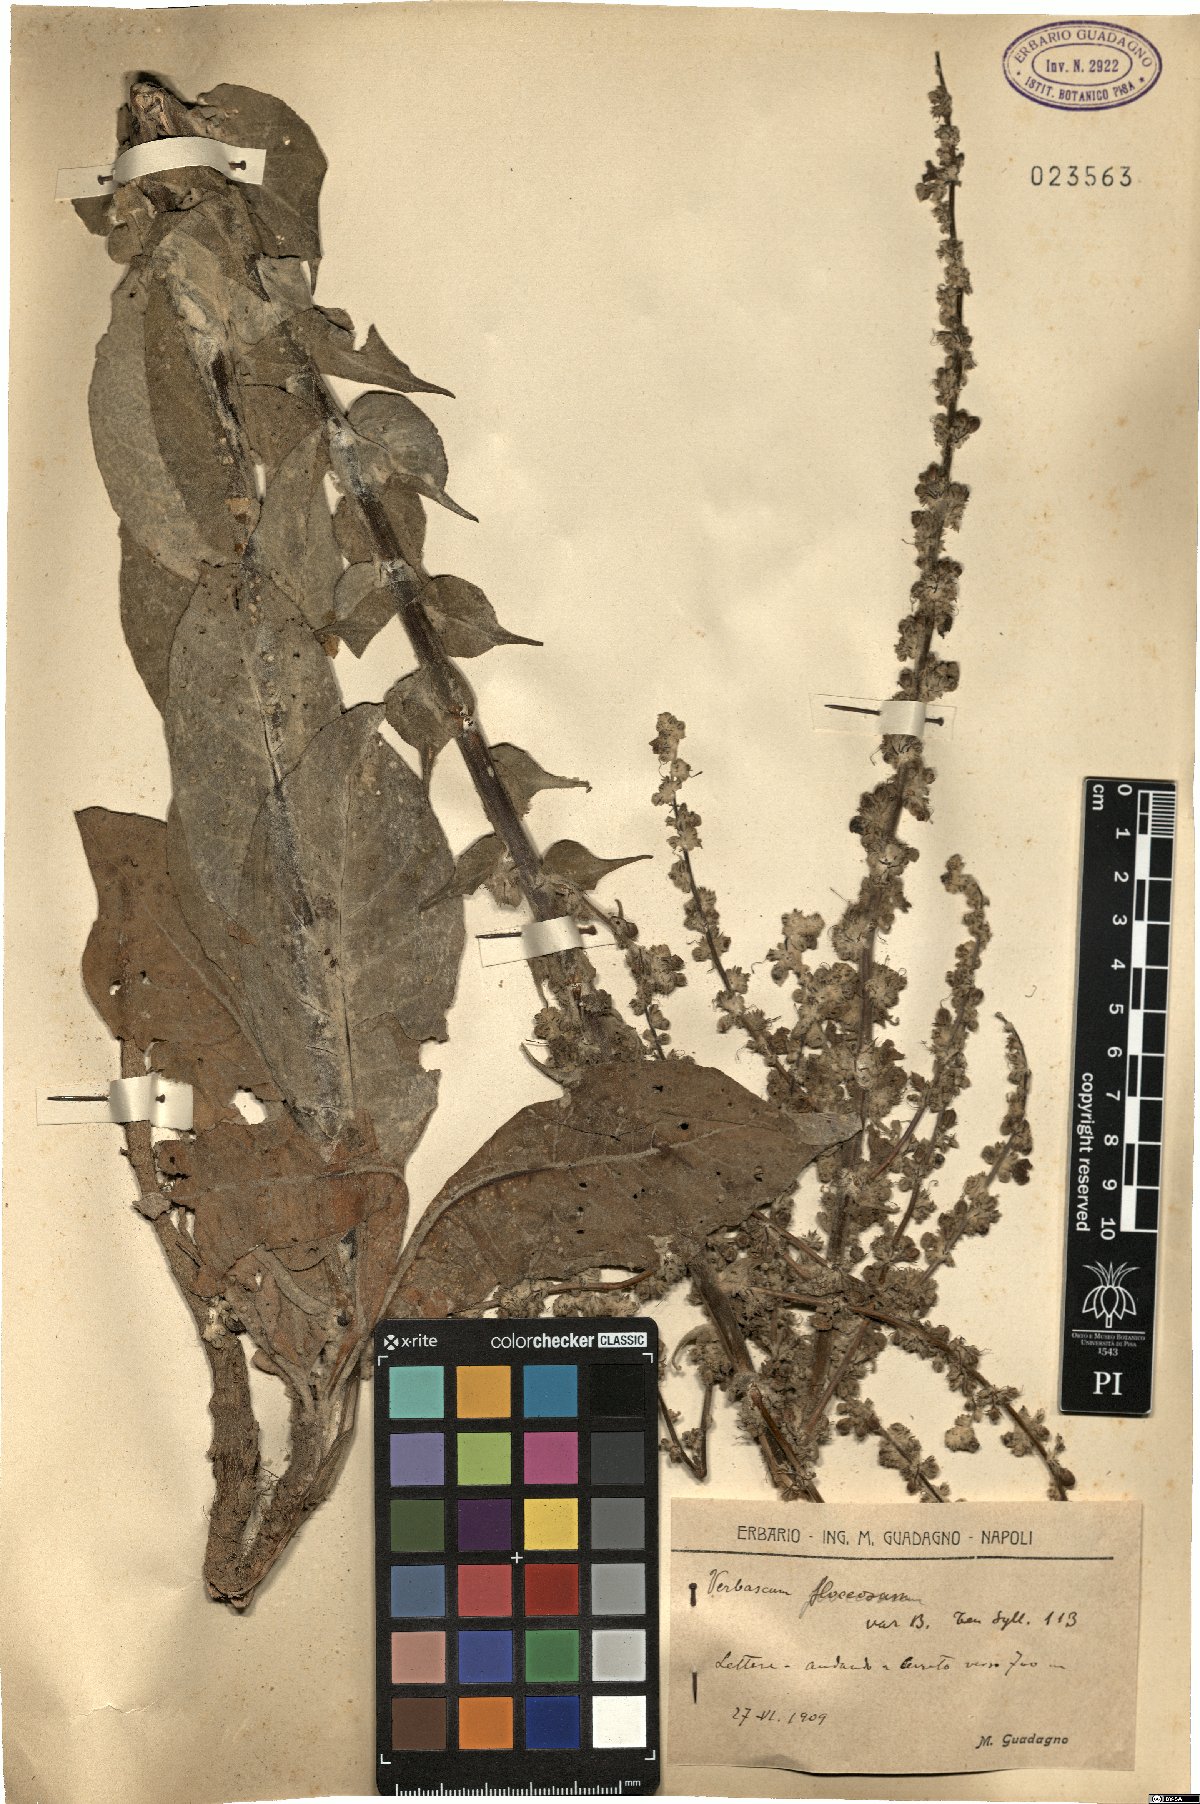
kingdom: Plantae
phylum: Tracheophyta
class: Magnoliopsida
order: Lamiales
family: Scrophulariaceae
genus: Verbascum
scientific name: Verbascum pulverulentum
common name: Broad-leaf mullein
